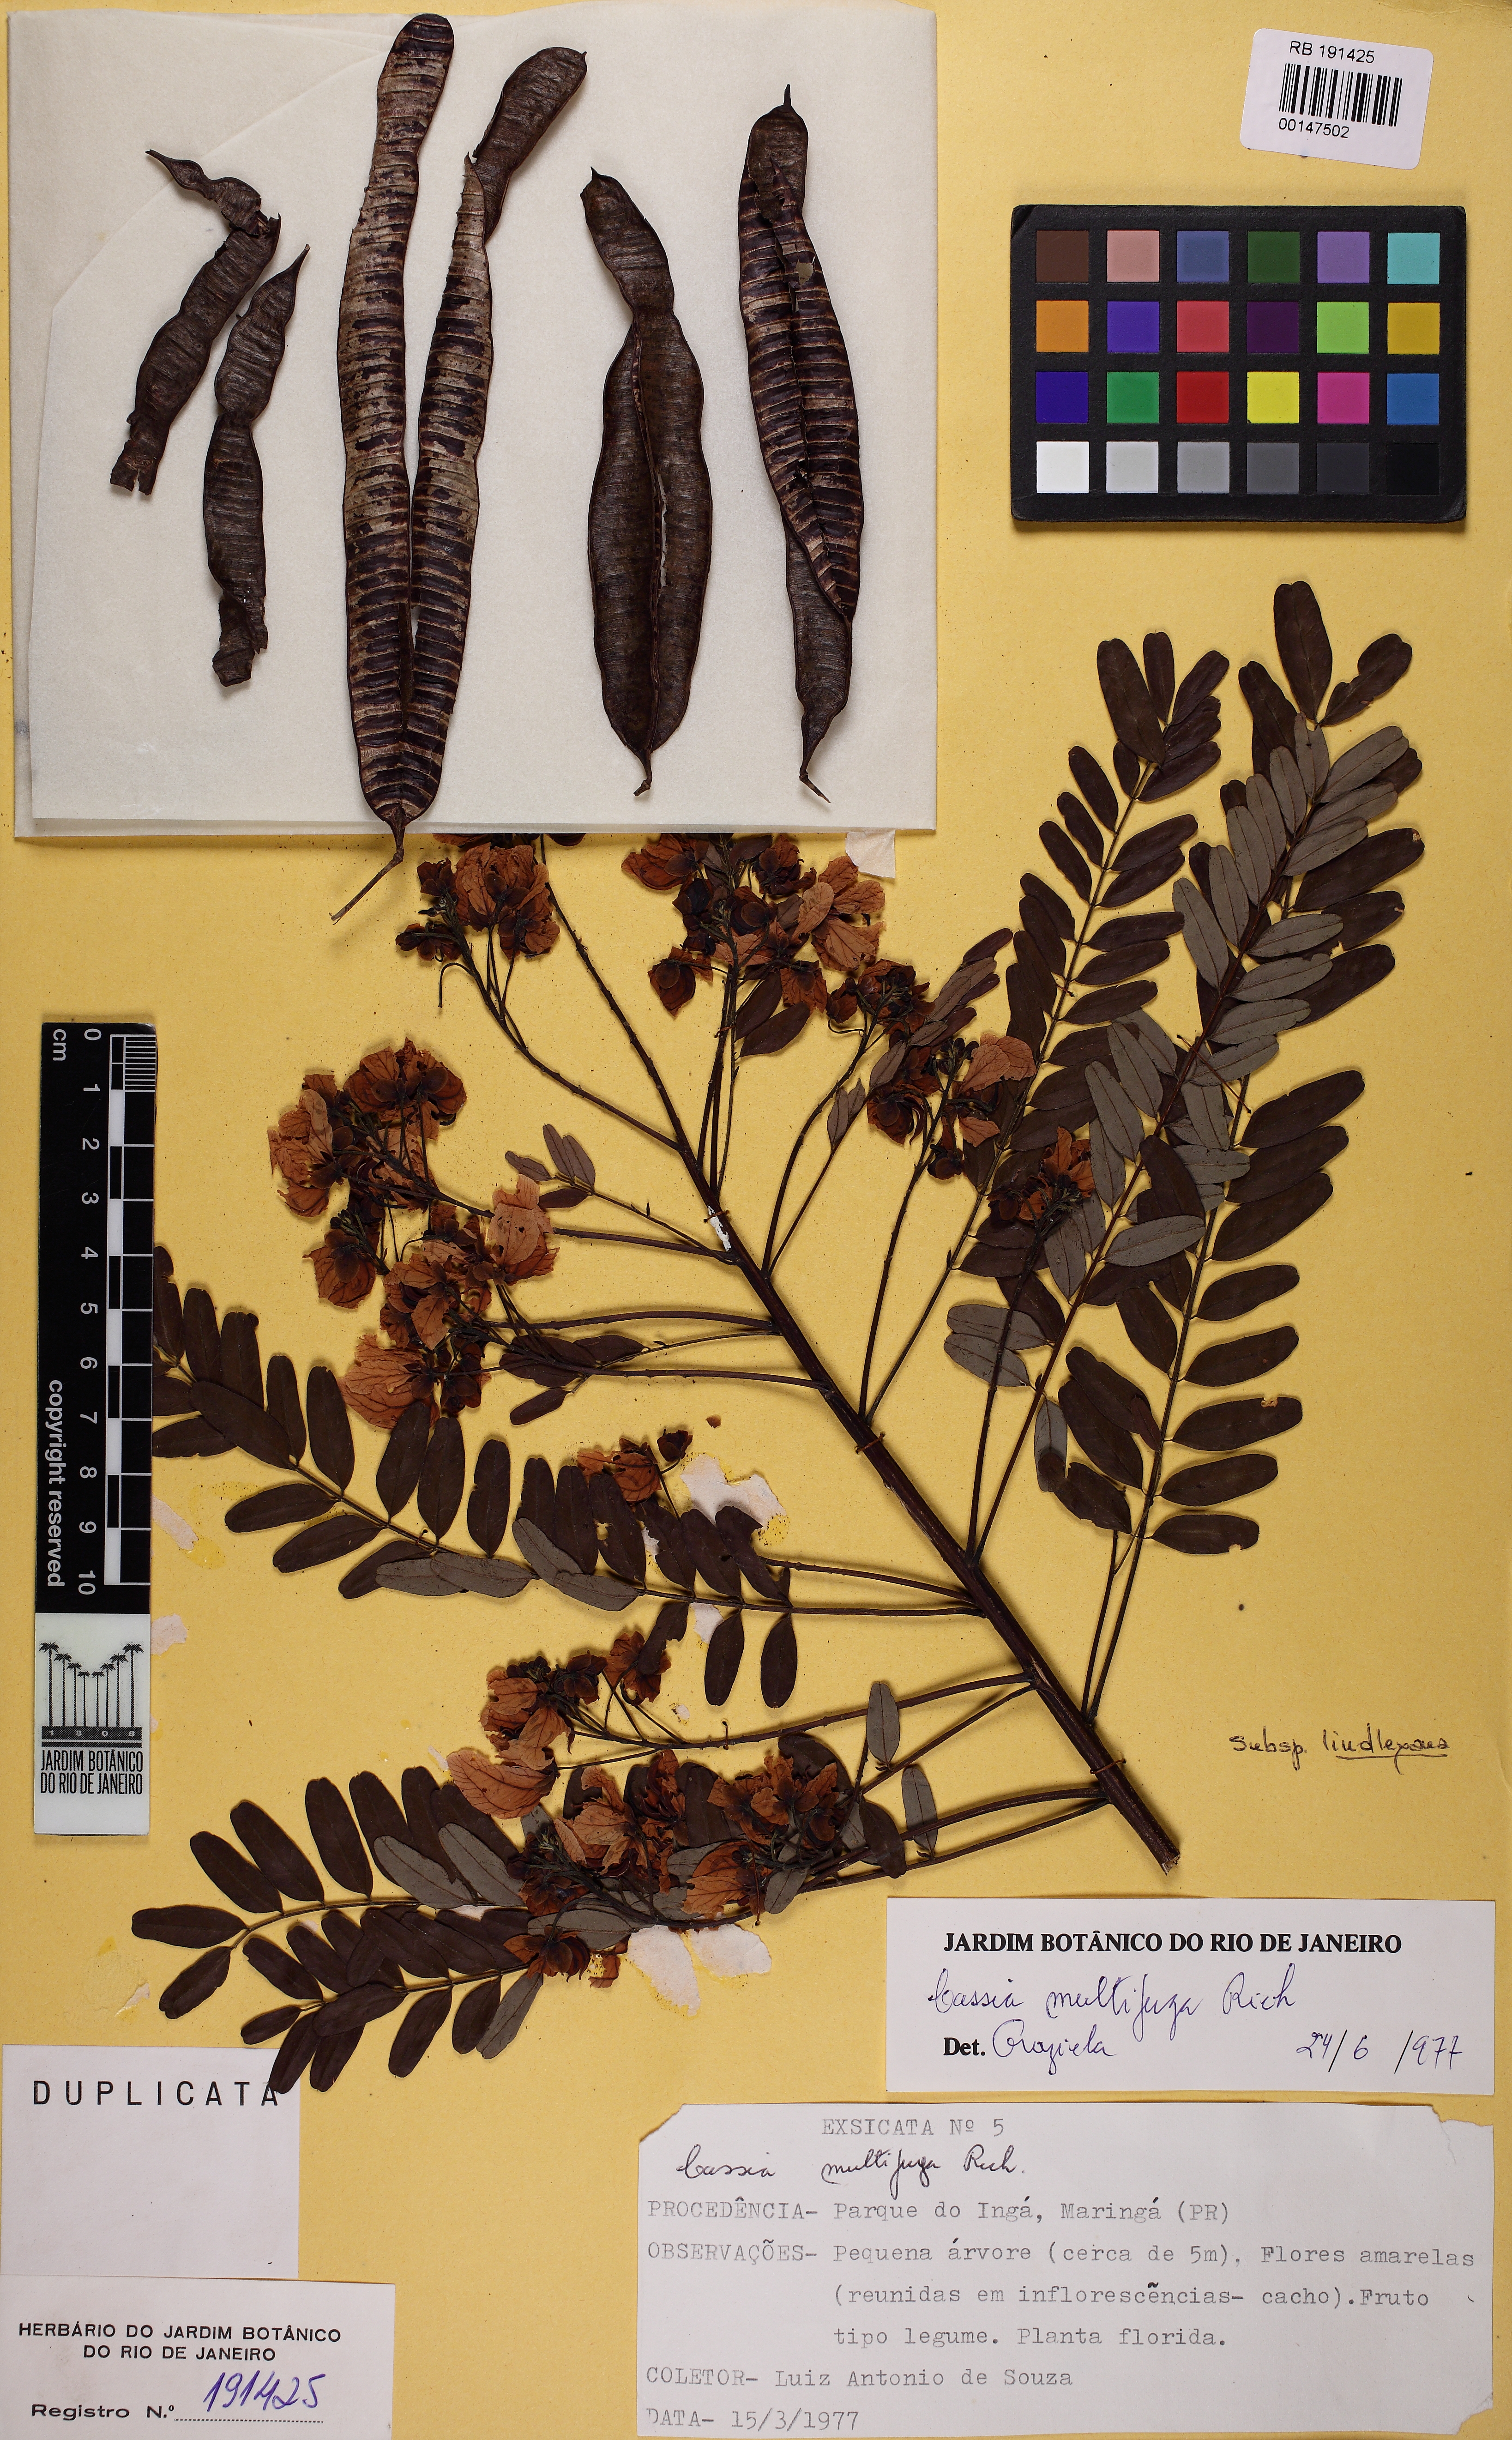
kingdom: Plantae
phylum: Tracheophyta
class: Magnoliopsida
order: Fabales
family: Fabaceae
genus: Senna
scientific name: Senna multijuga
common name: False sicklepod
